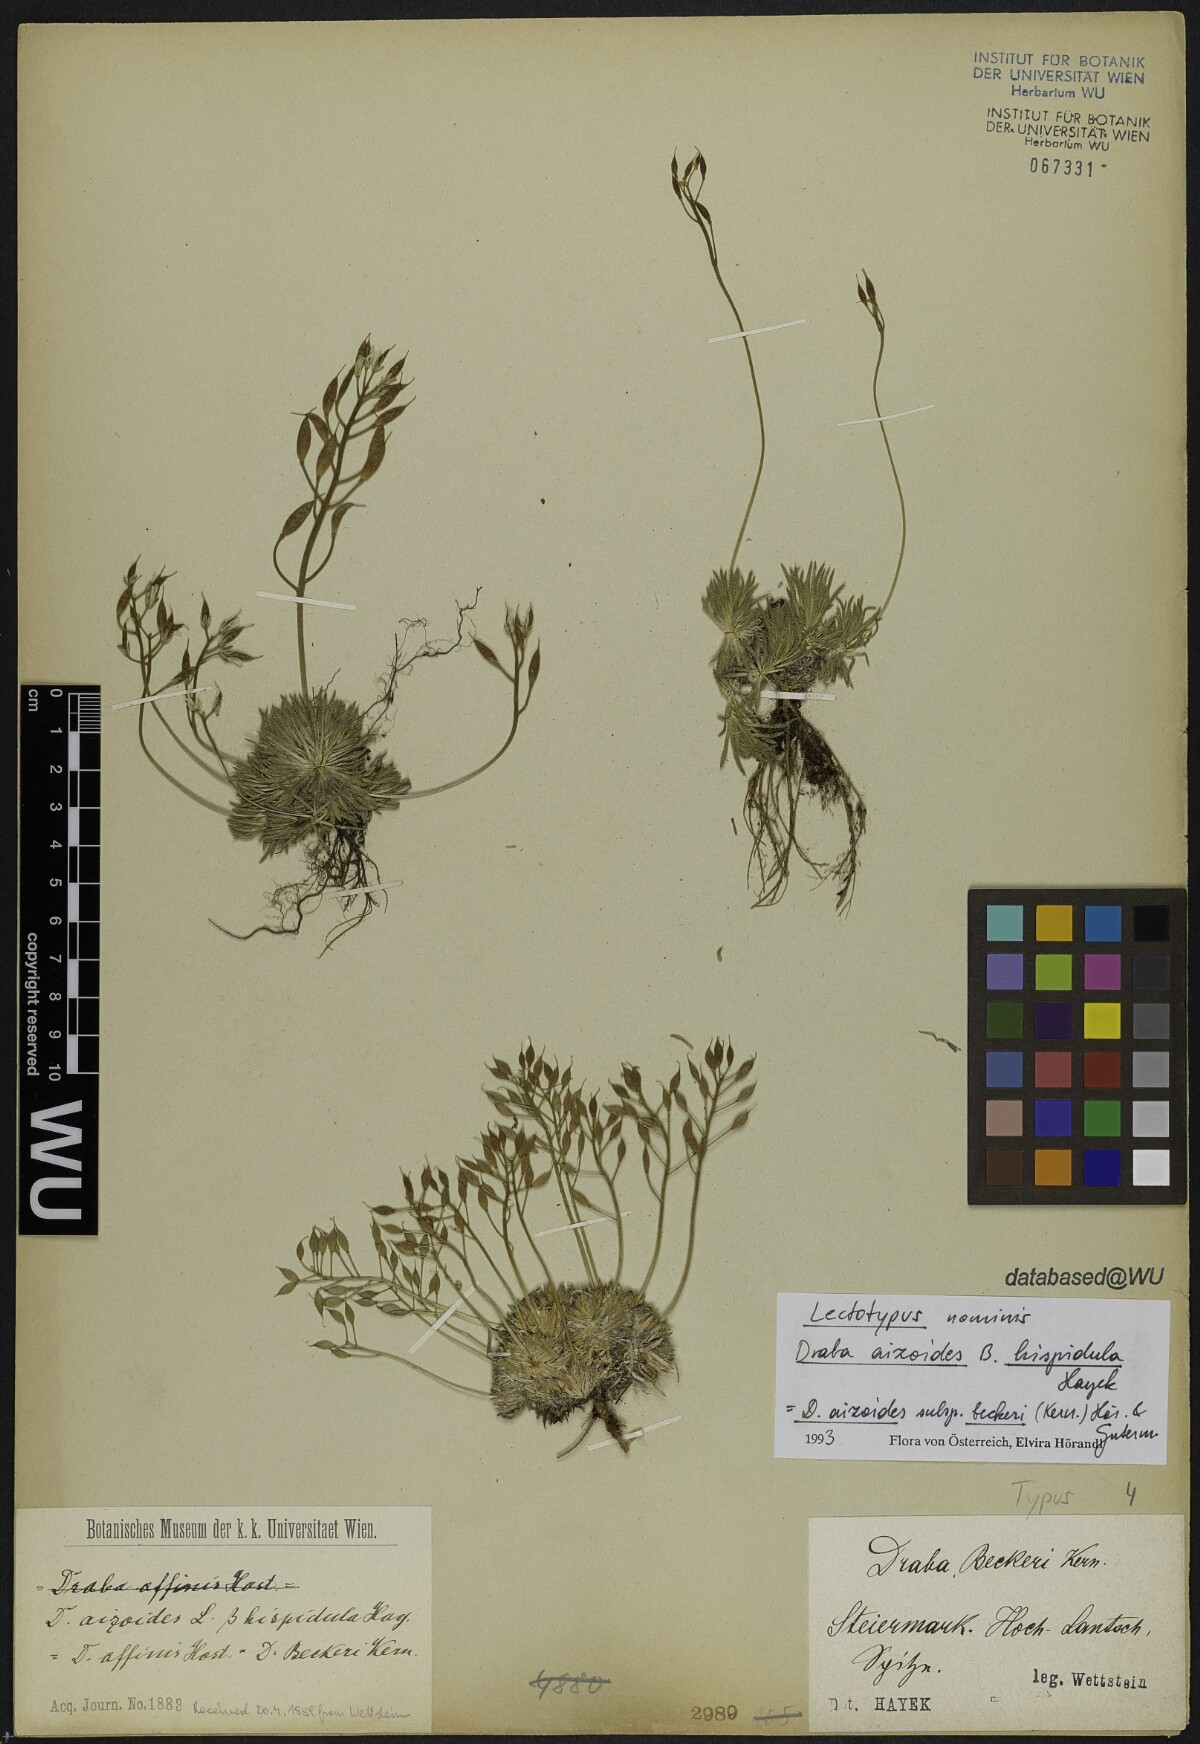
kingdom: Plantae
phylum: Tracheophyta
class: Magnoliopsida
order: Brassicales
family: Brassicaceae
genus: Draba
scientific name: Draba aizoides
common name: Yellow whitlowgrass
